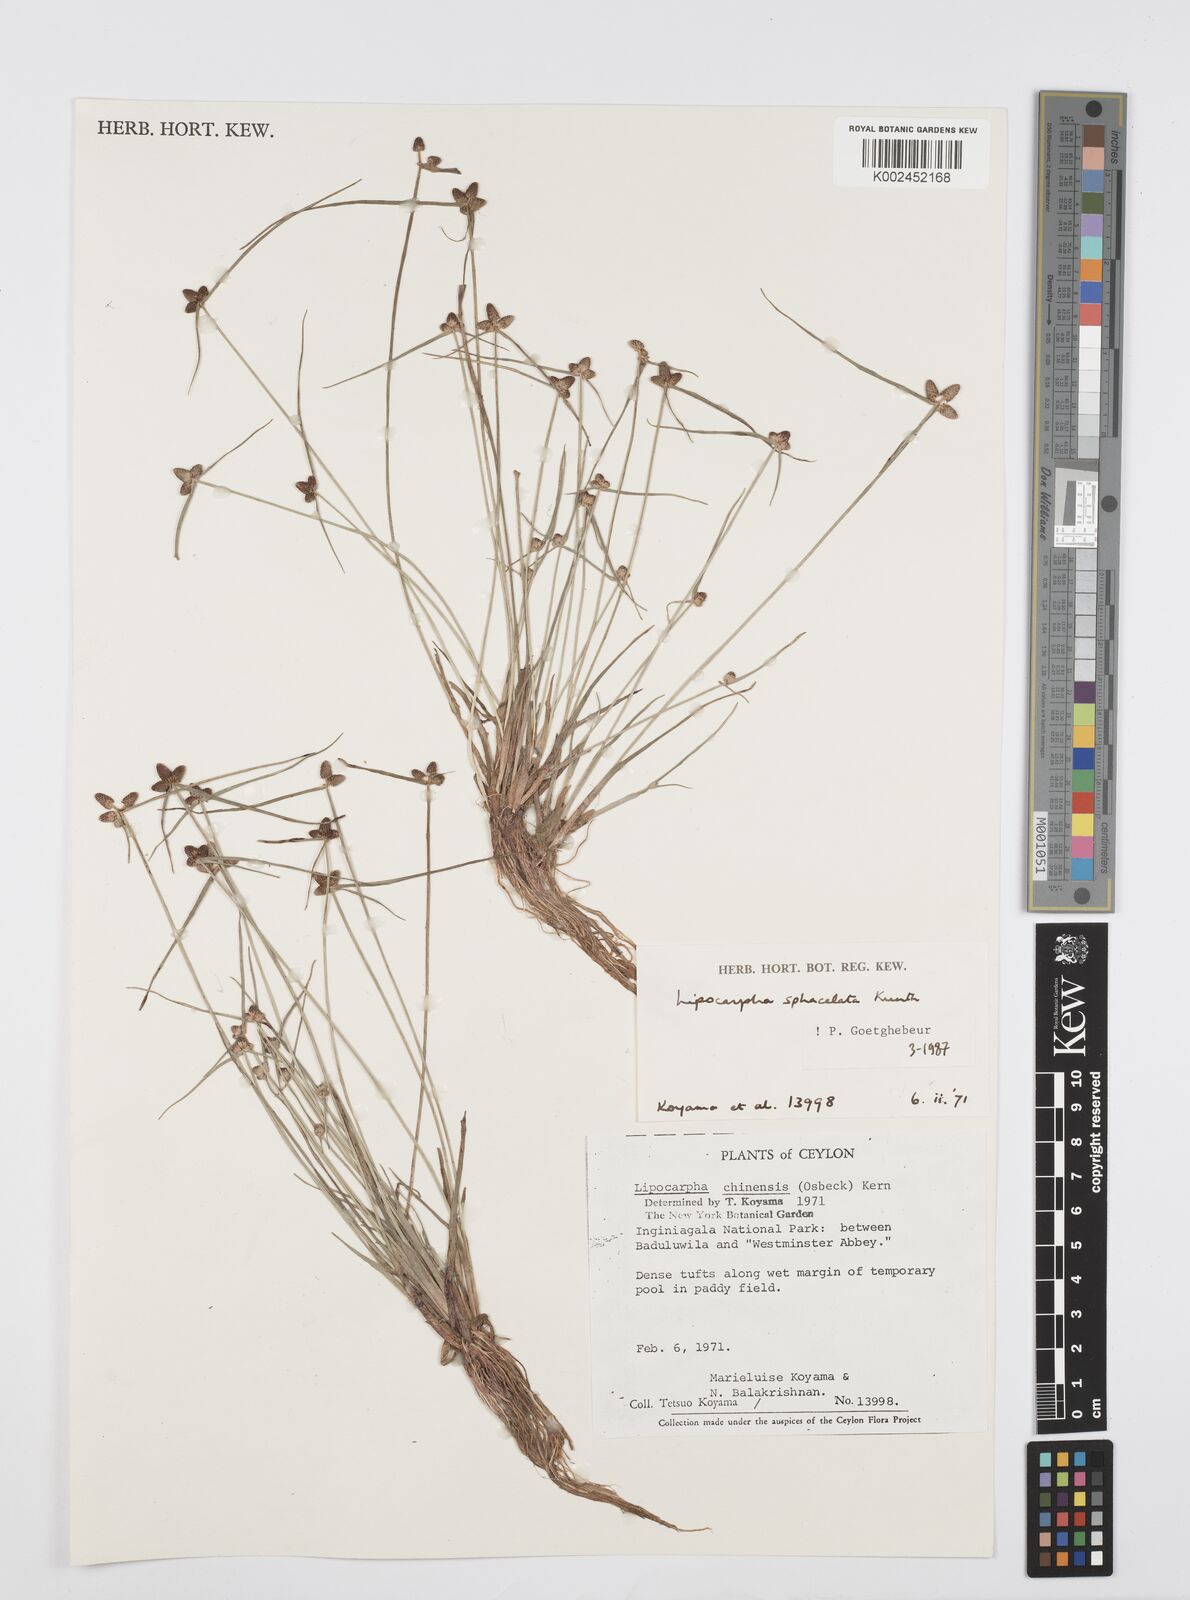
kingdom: Plantae
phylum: Tracheophyta
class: Liliopsida
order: Poales
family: Cyperaceae
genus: Cyperus
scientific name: Cyperus sphacelatus
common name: Roadside flatsedge
